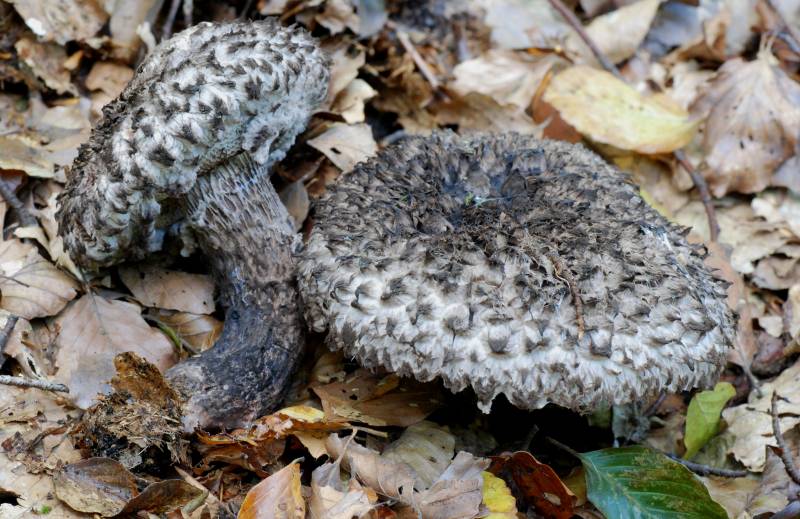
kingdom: Fungi
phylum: Basidiomycota
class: Agaricomycetes
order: Boletales
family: Boletaceae
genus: Strobilomyces
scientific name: Strobilomyces strobilaceus
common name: koglerørhat
